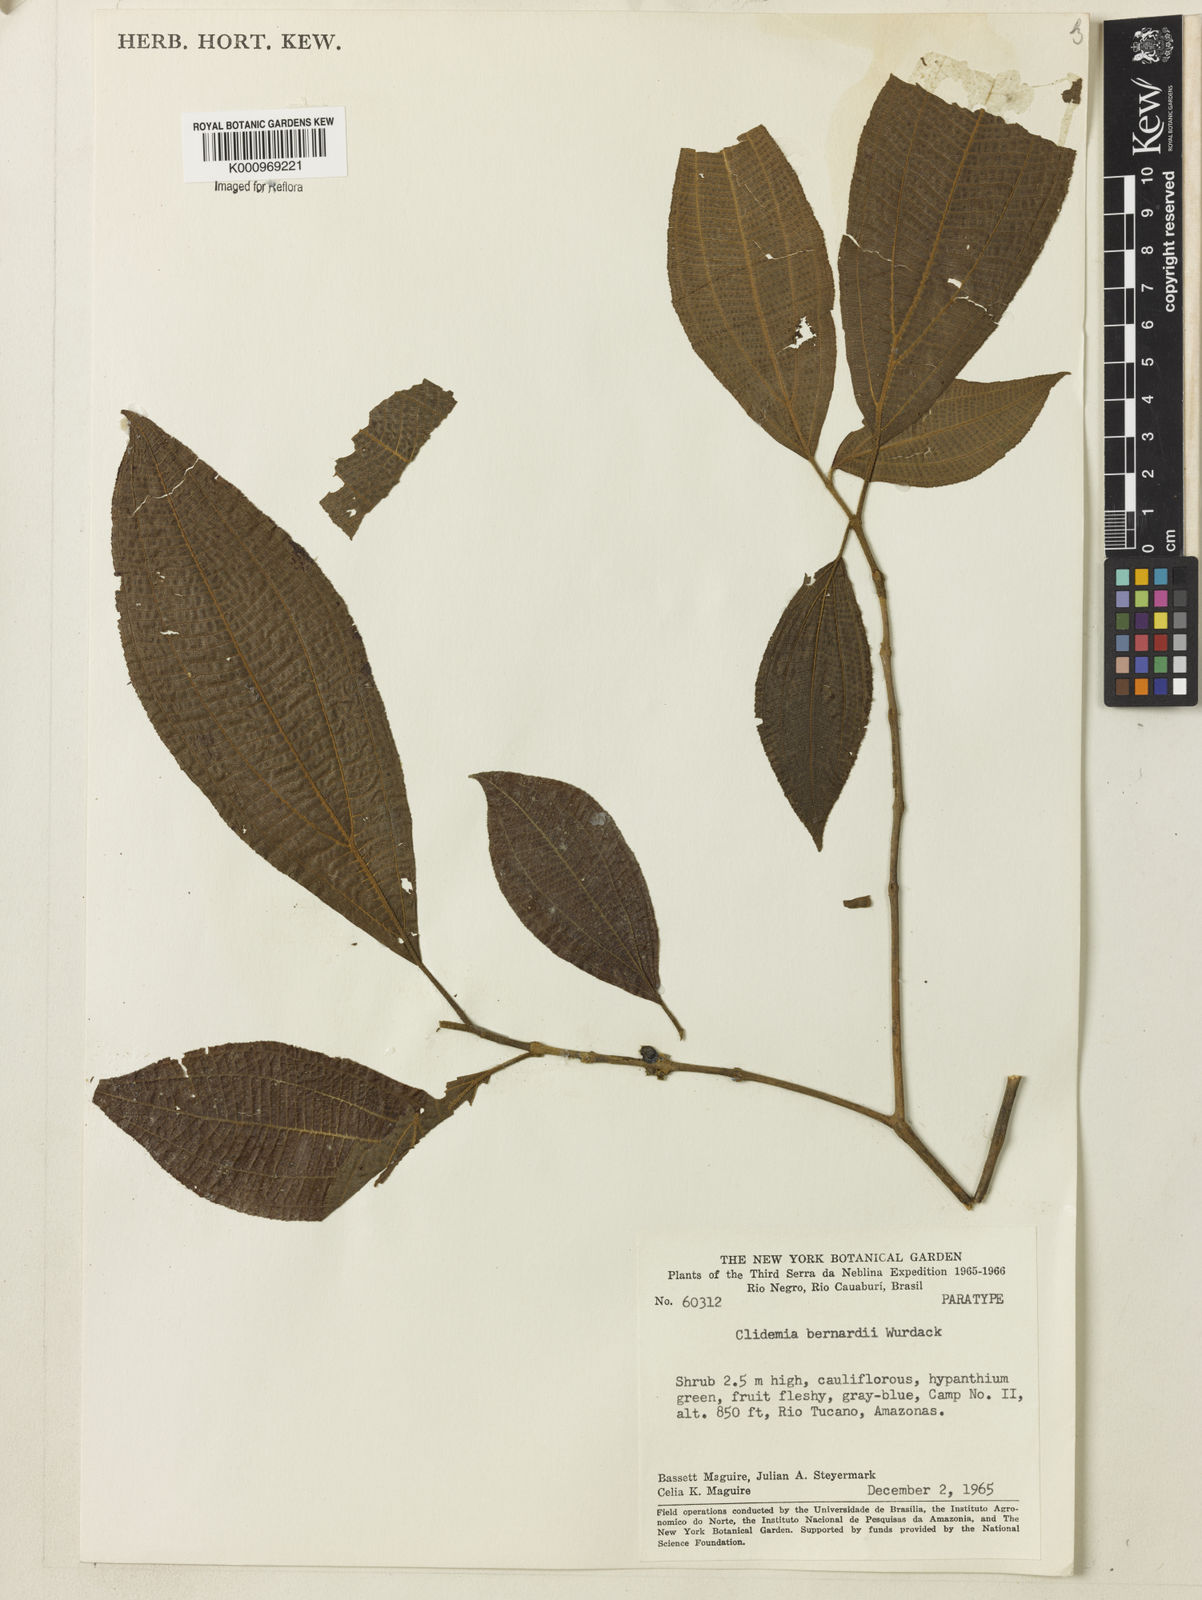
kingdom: Plantae
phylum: Tracheophyta
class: Magnoliopsida
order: Myrtales
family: Melastomataceae
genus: Miconia
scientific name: Miconia lucianobernardii
